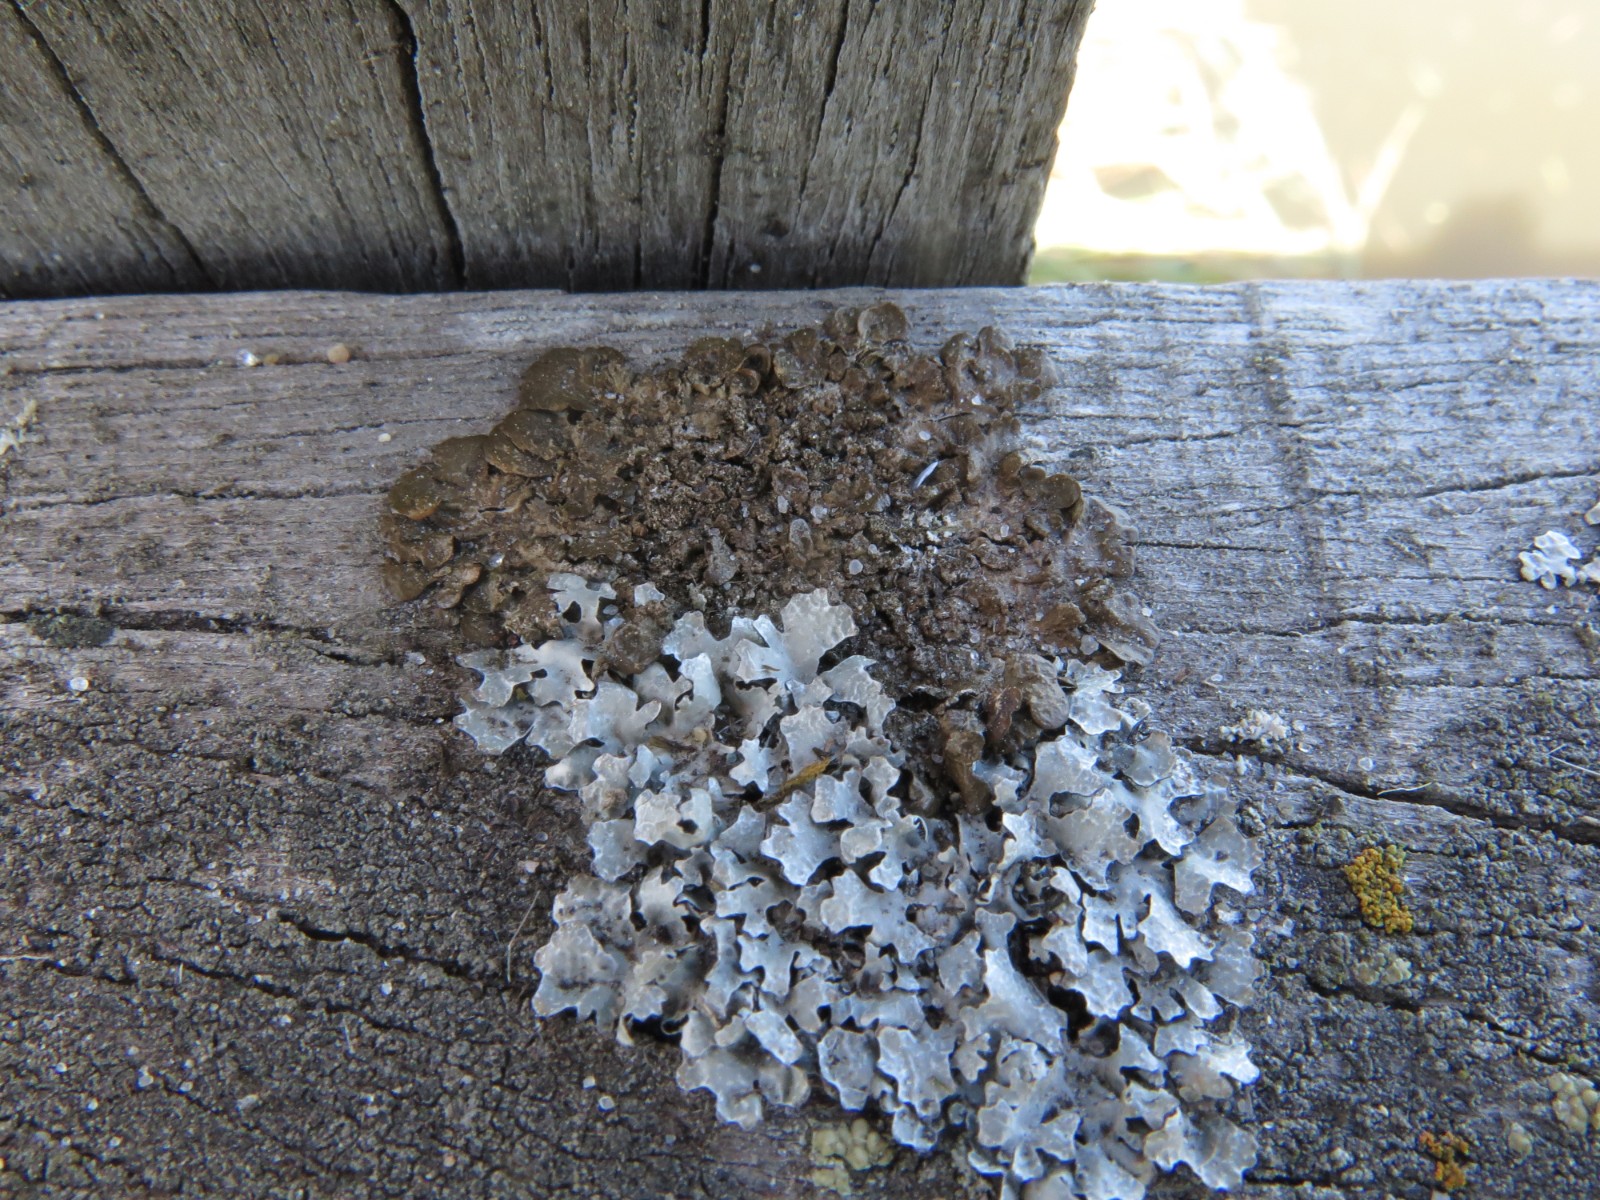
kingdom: Fungi
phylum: Ascomycota
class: Lecanoromycetes
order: Lecanorales
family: Parmeliaceae
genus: Melanelixia
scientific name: Melanelixia subaurifera
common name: guldpudret skållav
